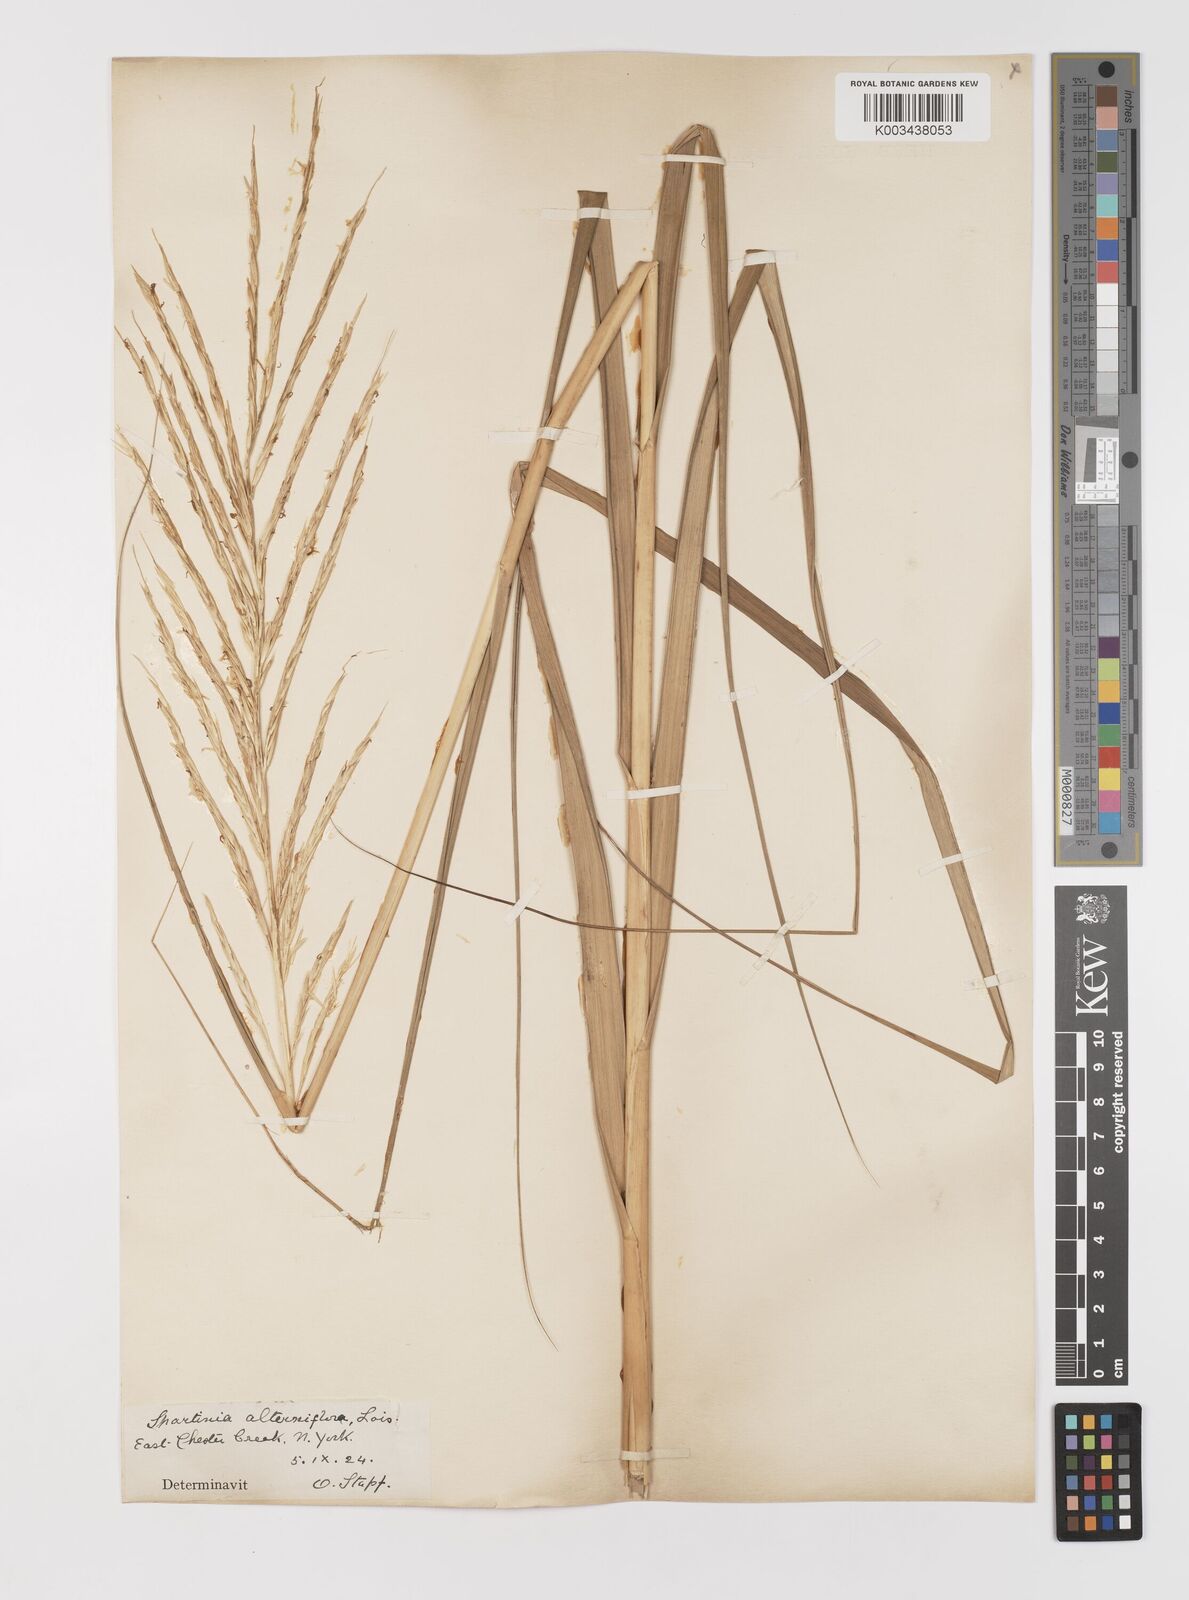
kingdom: Plantae
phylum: Tracheophyta
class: Liliopsida
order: Poales
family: Poaceae
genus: Sporobolus
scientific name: Sporobolus coarctatus
